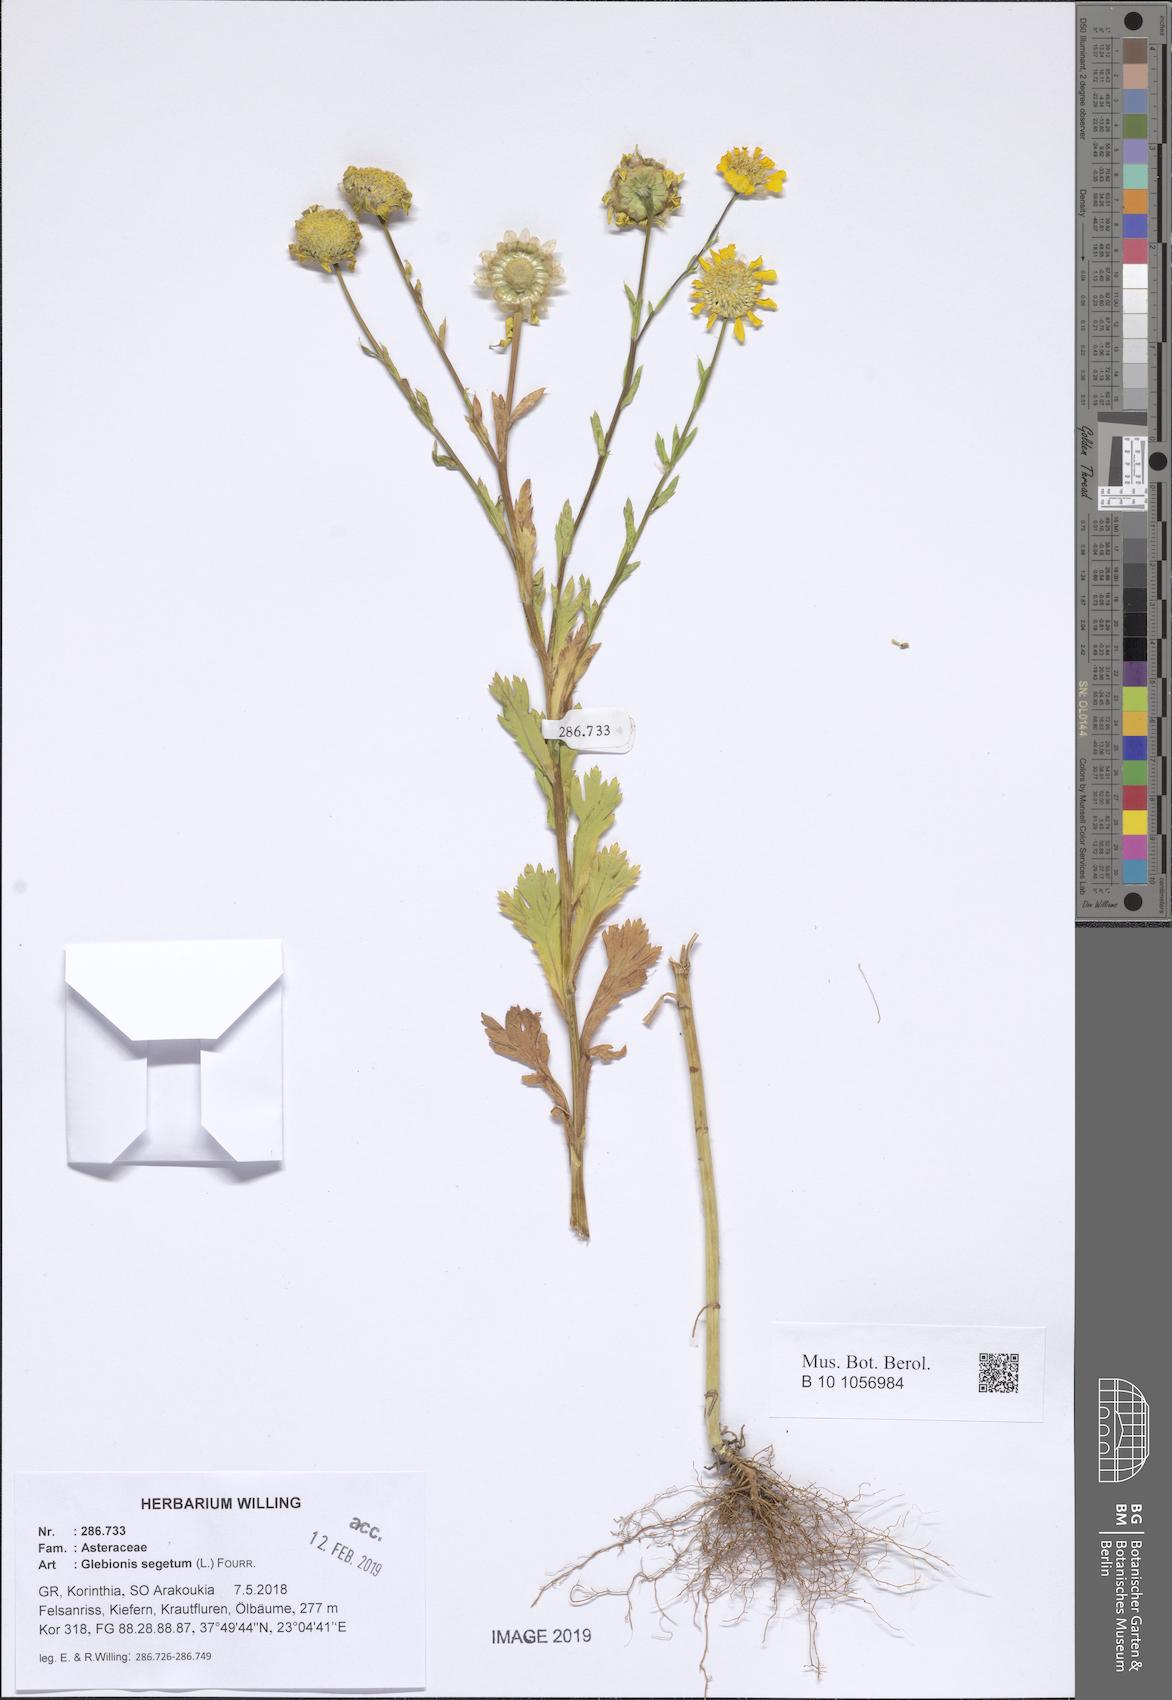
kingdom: Plantae
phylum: Tracheophyta
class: Magnoliopsida
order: Asterales
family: Asteraceae
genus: Glebionis
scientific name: Glebionis segetum
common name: Corndaisy
